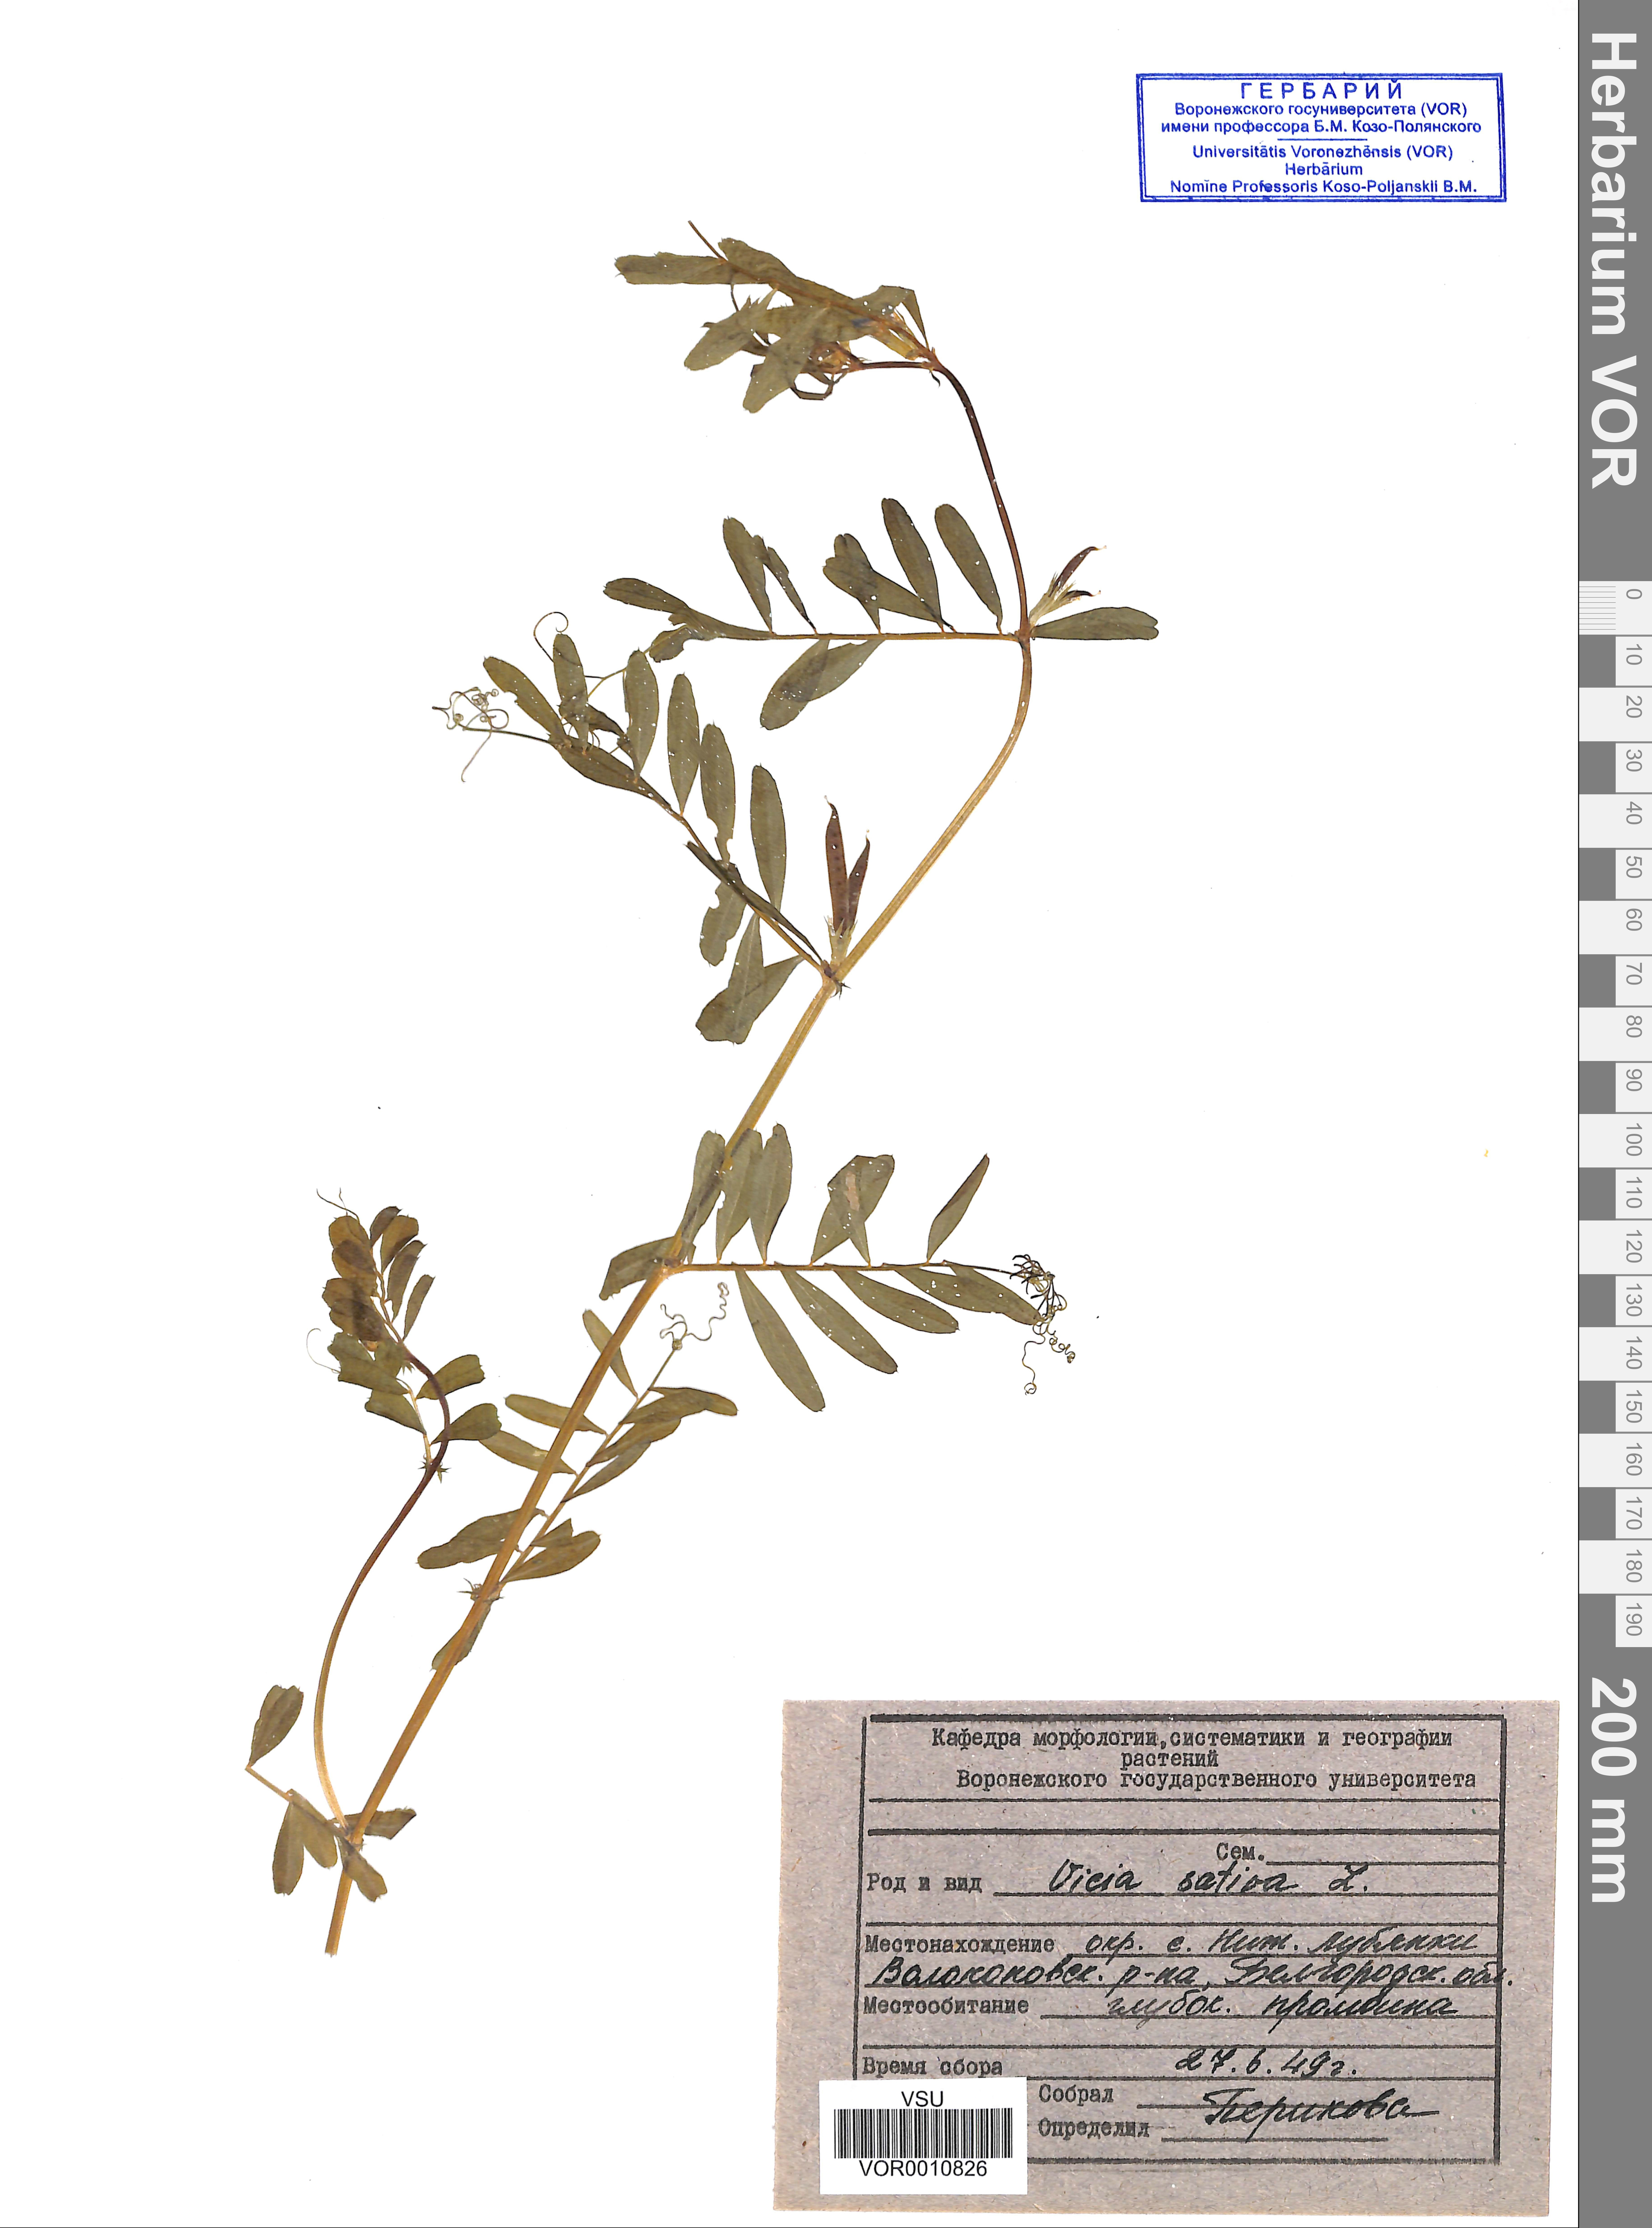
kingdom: Plantae
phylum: Tracheophyta
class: Magnoliopsida
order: Fabales
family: Fabaceae
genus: Vicia
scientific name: Vicia sativa
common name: Garden vetch
